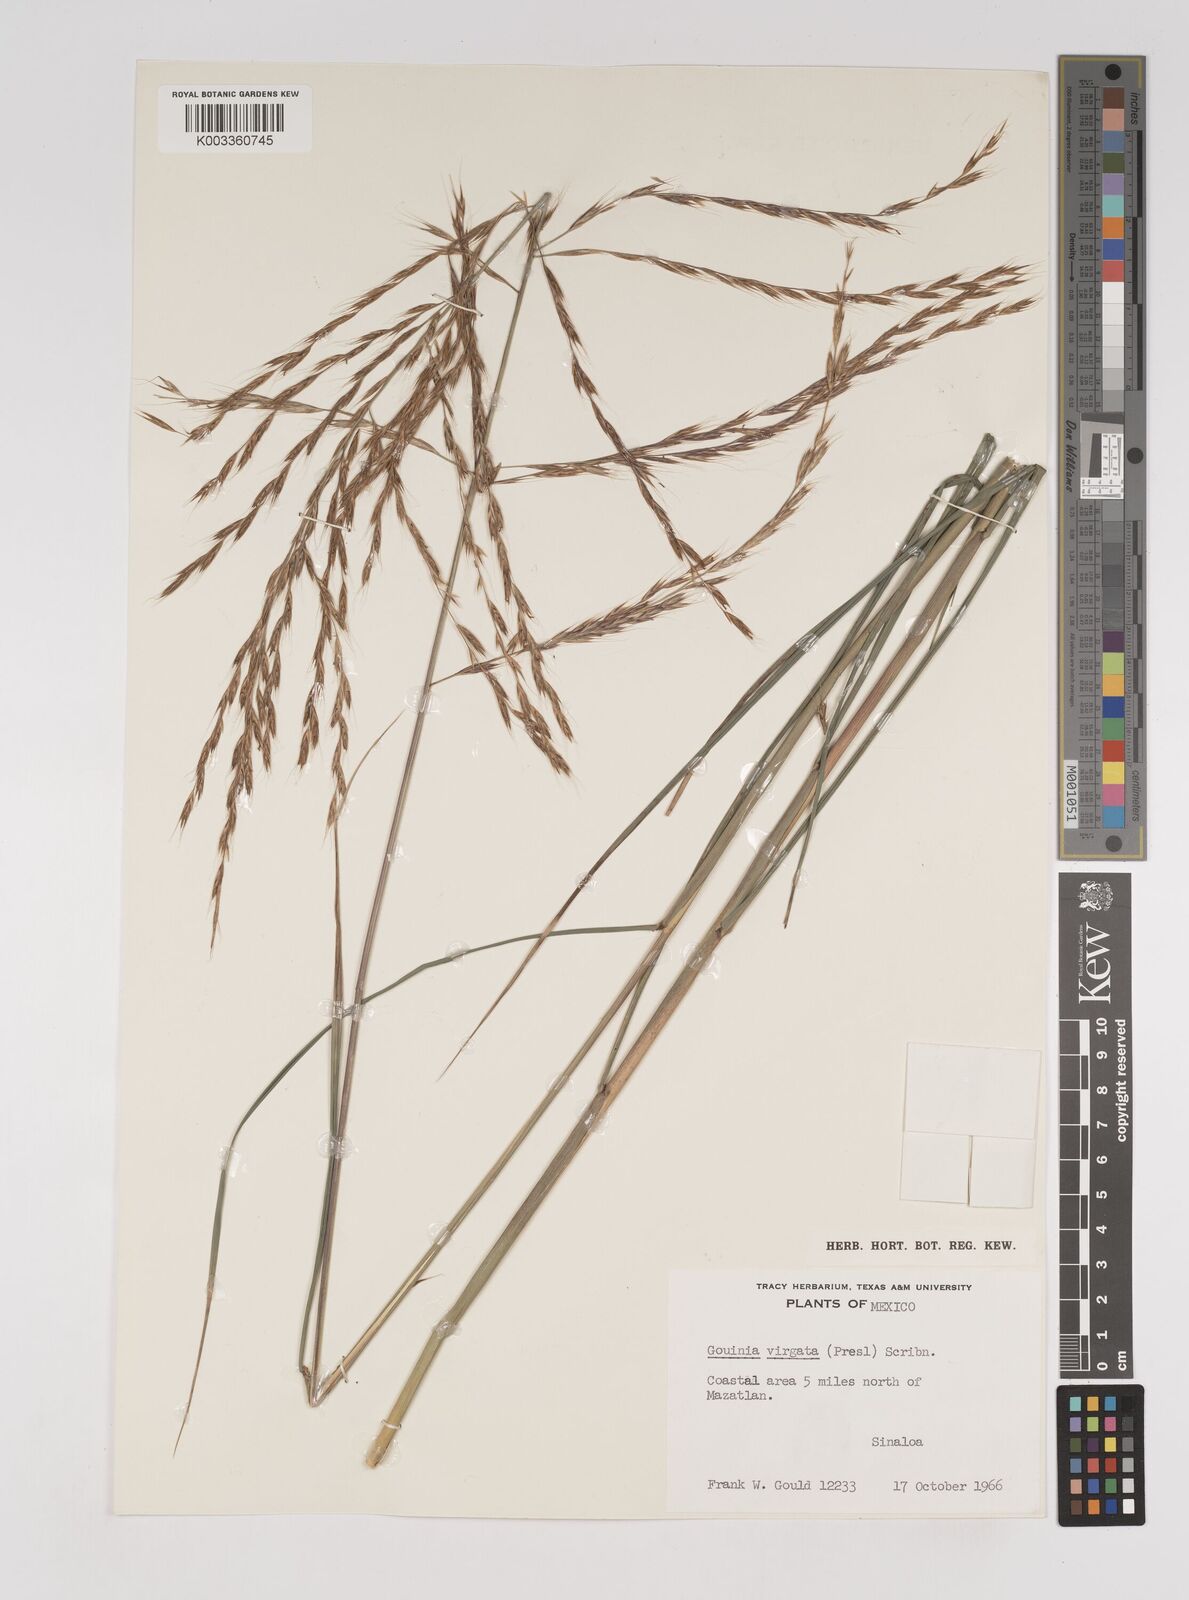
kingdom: Plantae
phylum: Tracheophyta
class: Liliopsida
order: Poales
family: Poaceae
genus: Gouinia
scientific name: Gouinia virgata
